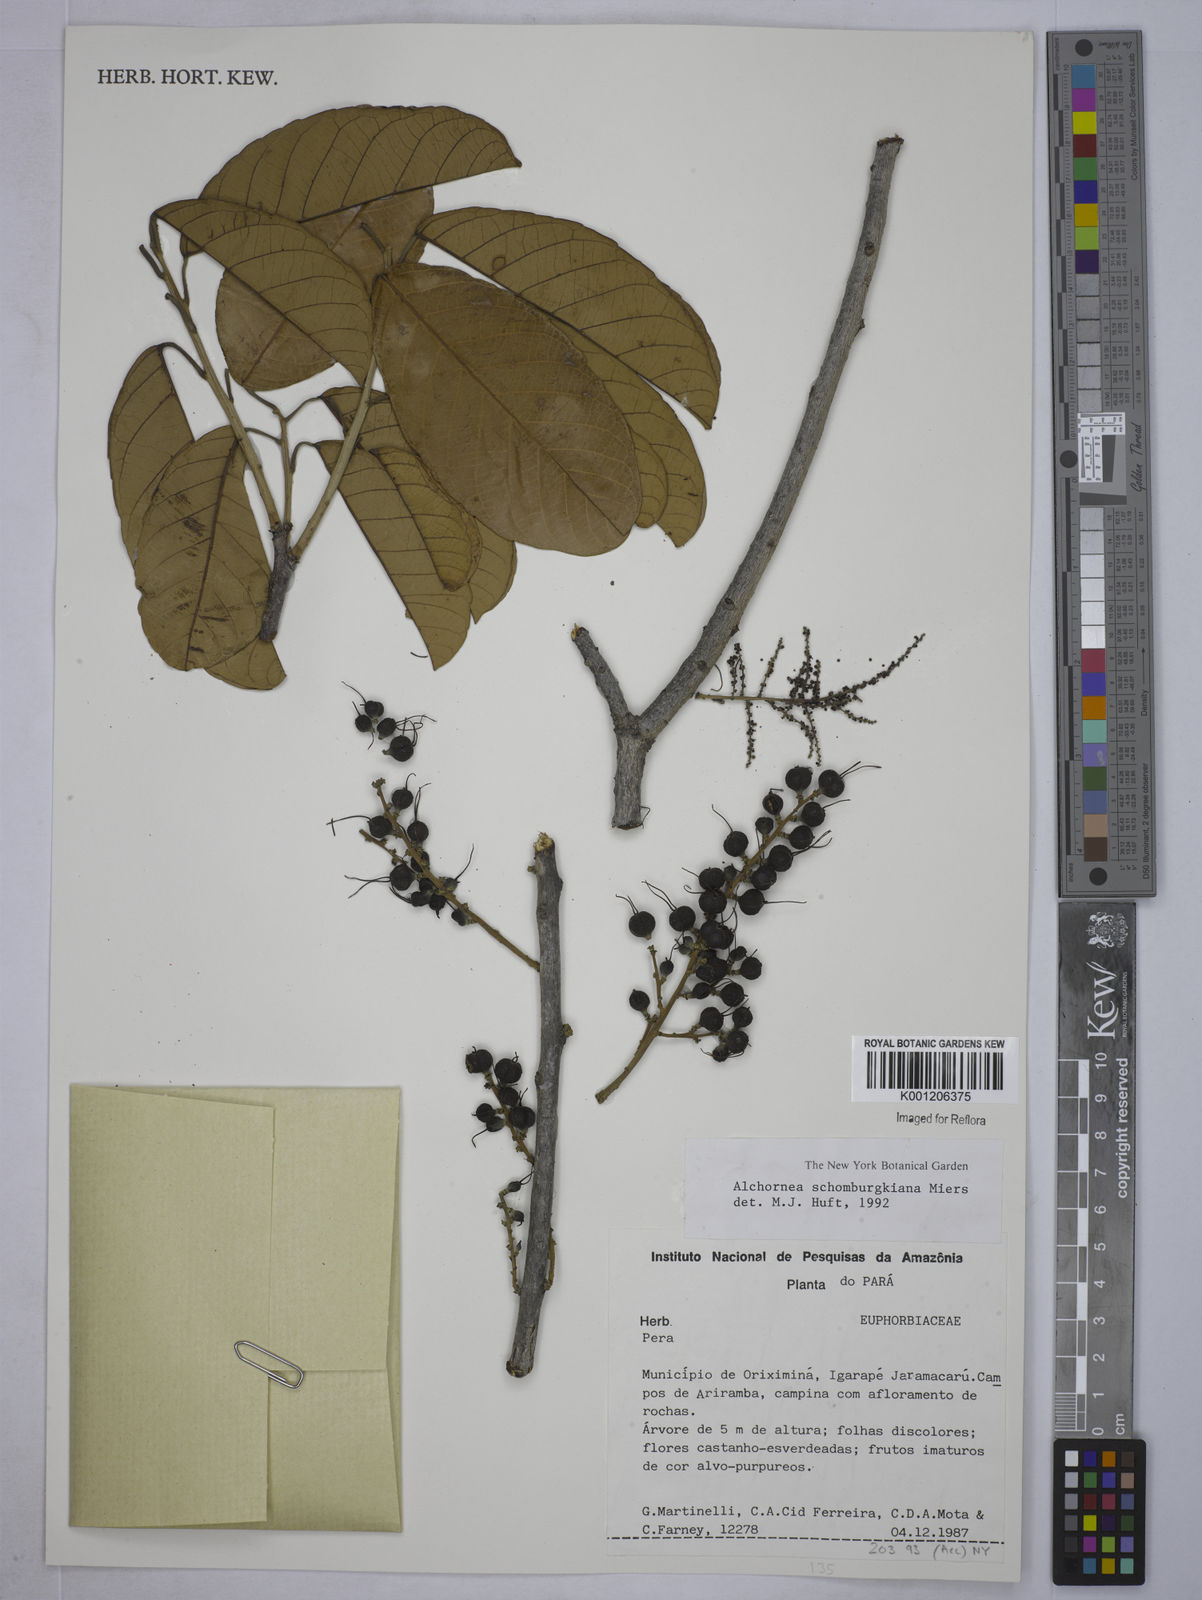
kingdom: Plantae
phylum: Tracheophyta
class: Magnoliopsida
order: Malpighiales
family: Euphorbiaceae
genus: Alchornea
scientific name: Alchornea
